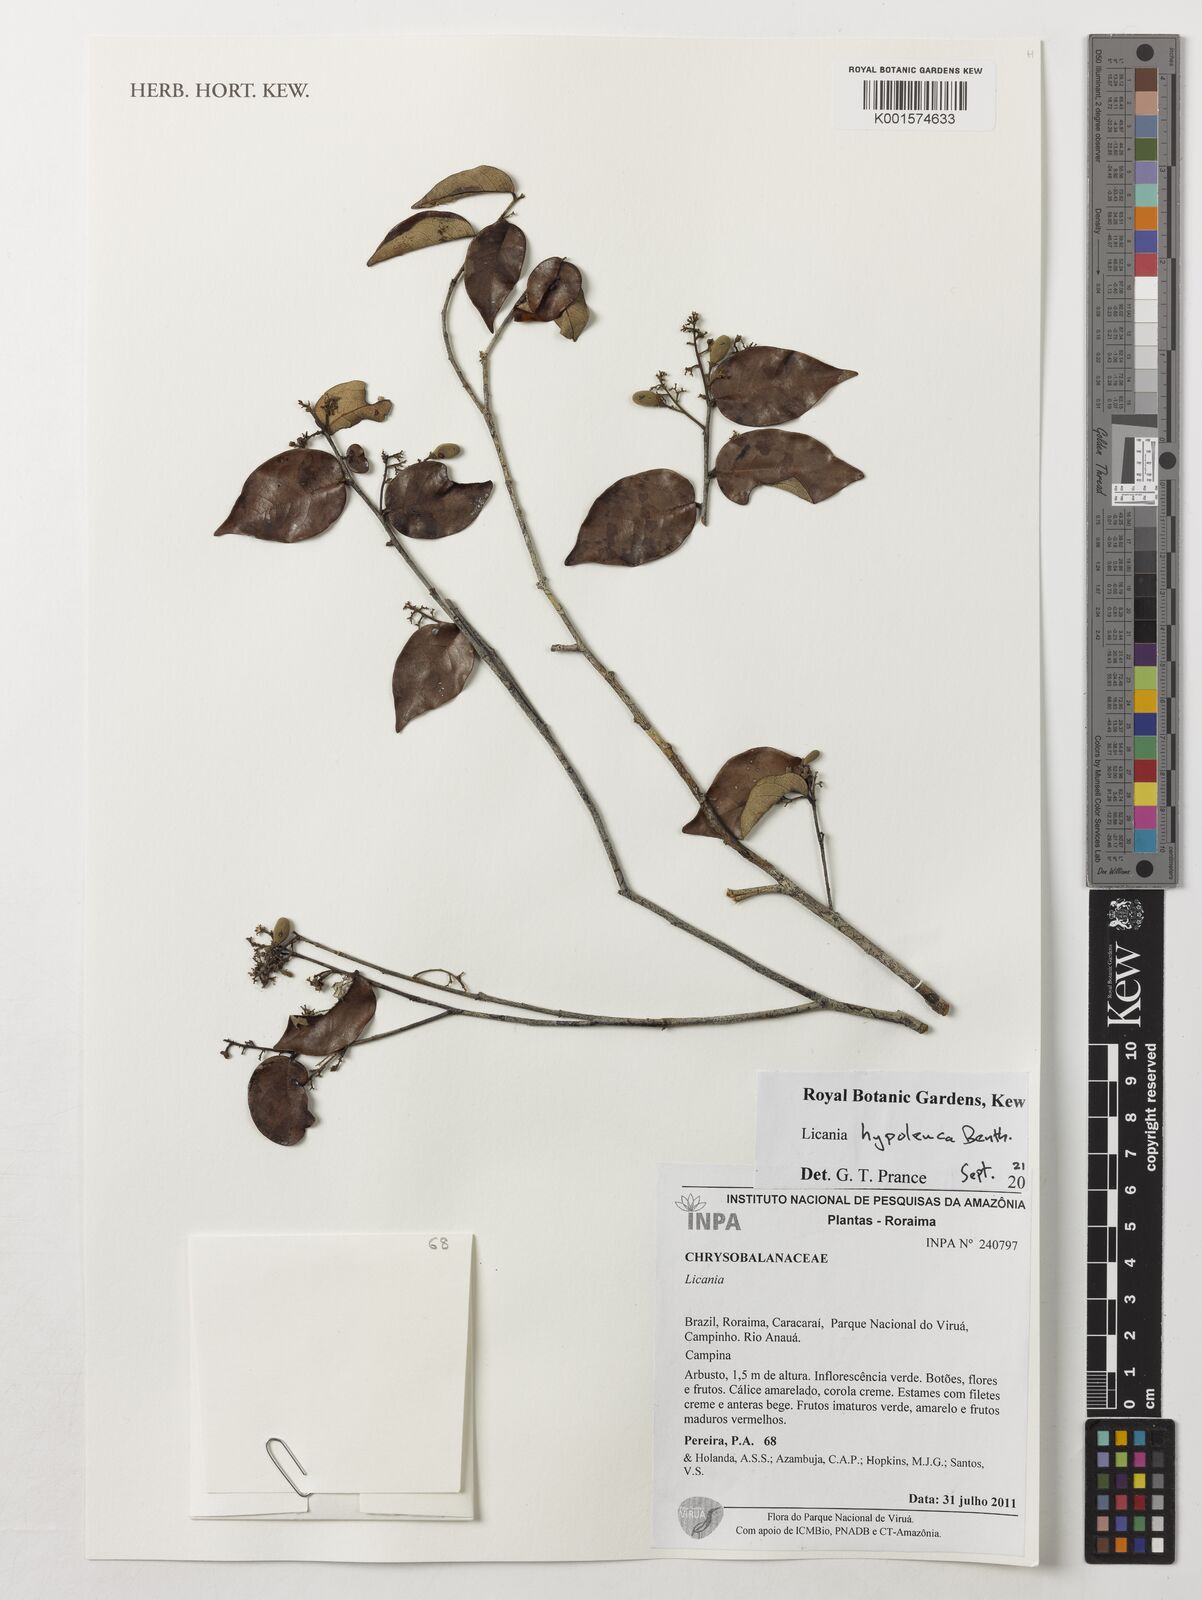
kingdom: Plantae
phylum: Tracheophyta
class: Magnoliopsida
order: Malpighiales
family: Chrysobalanaceae
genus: Licania
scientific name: Licania hypoleuca
